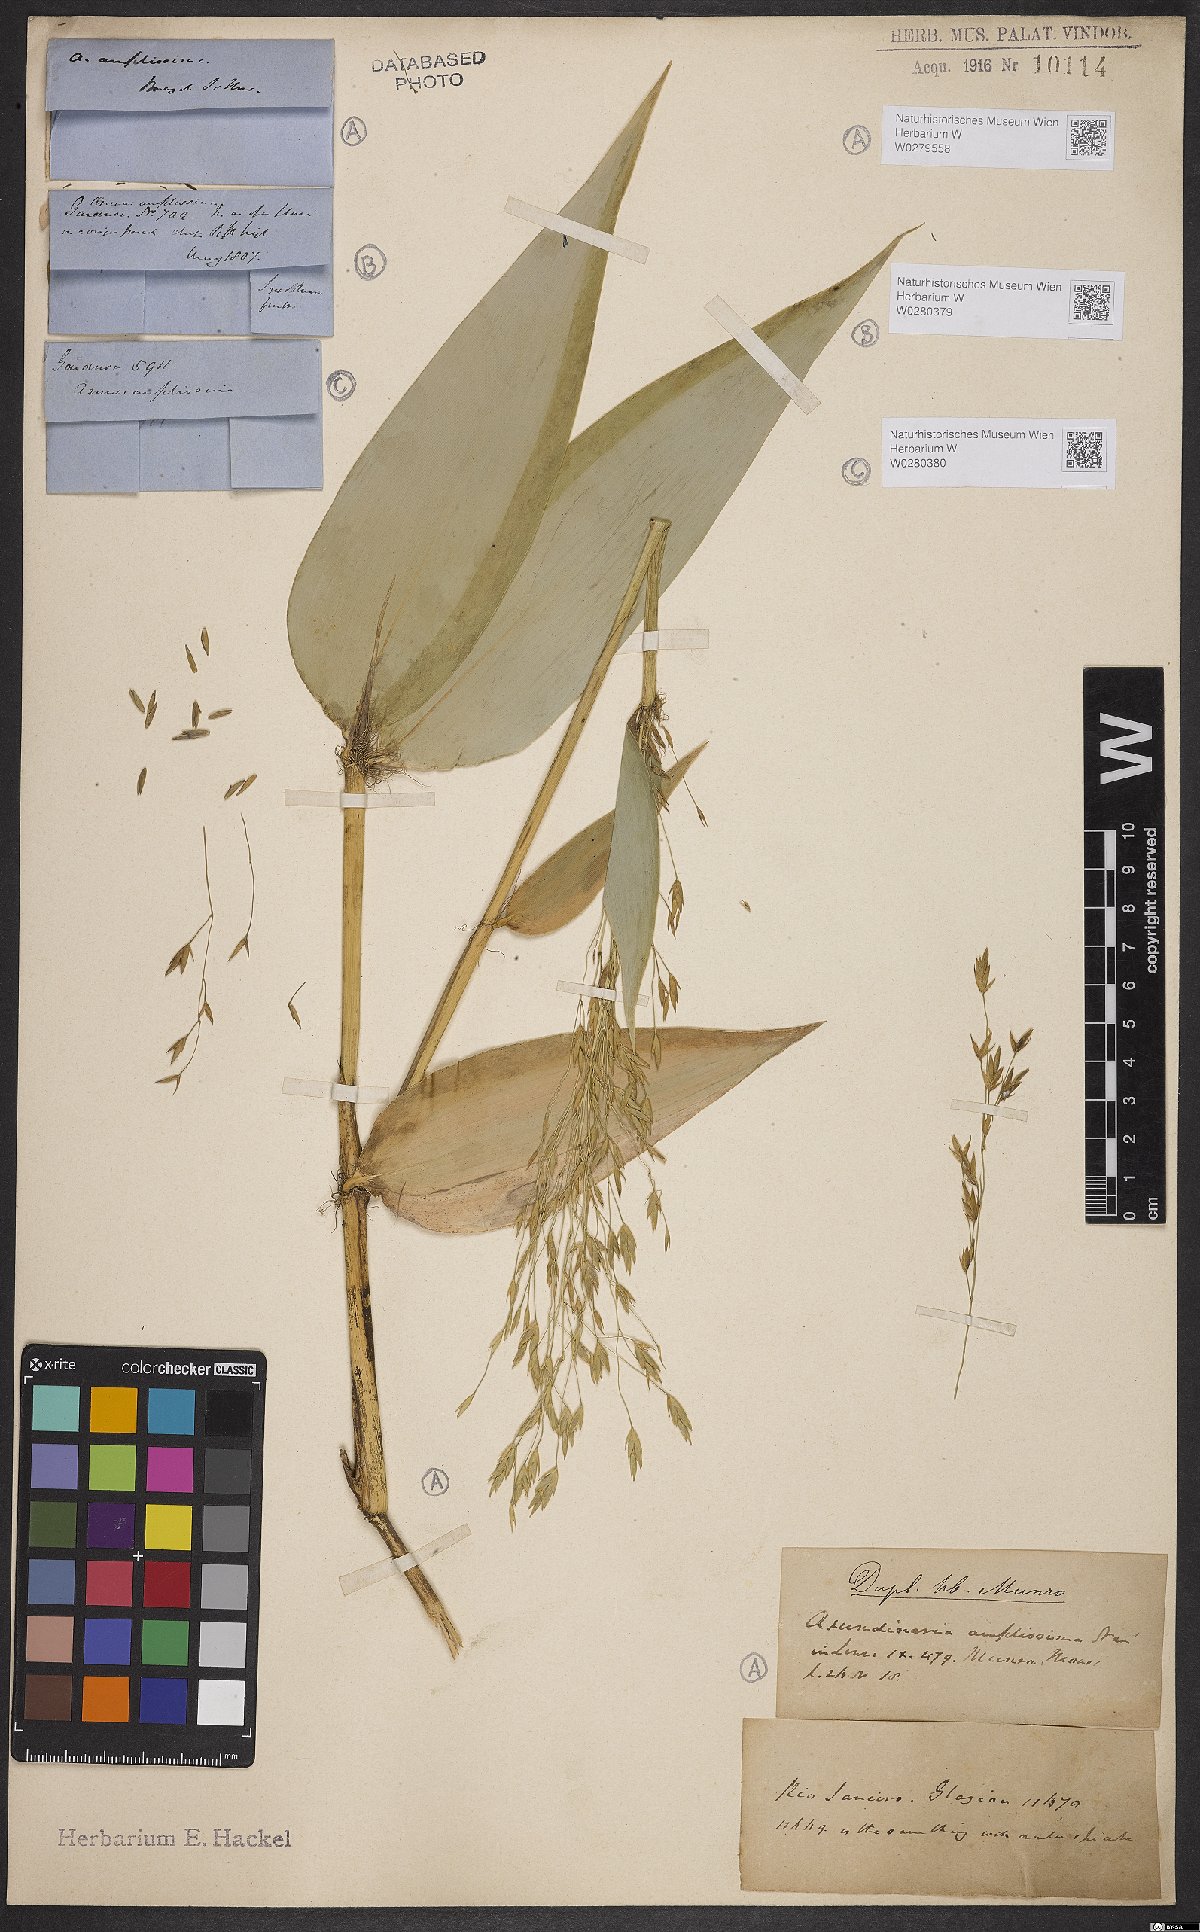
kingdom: Plantae
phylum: Tracheophyta
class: Liliopsida
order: Poales
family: Poaceae
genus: Aulonemia
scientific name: Aulonemia amplissima
